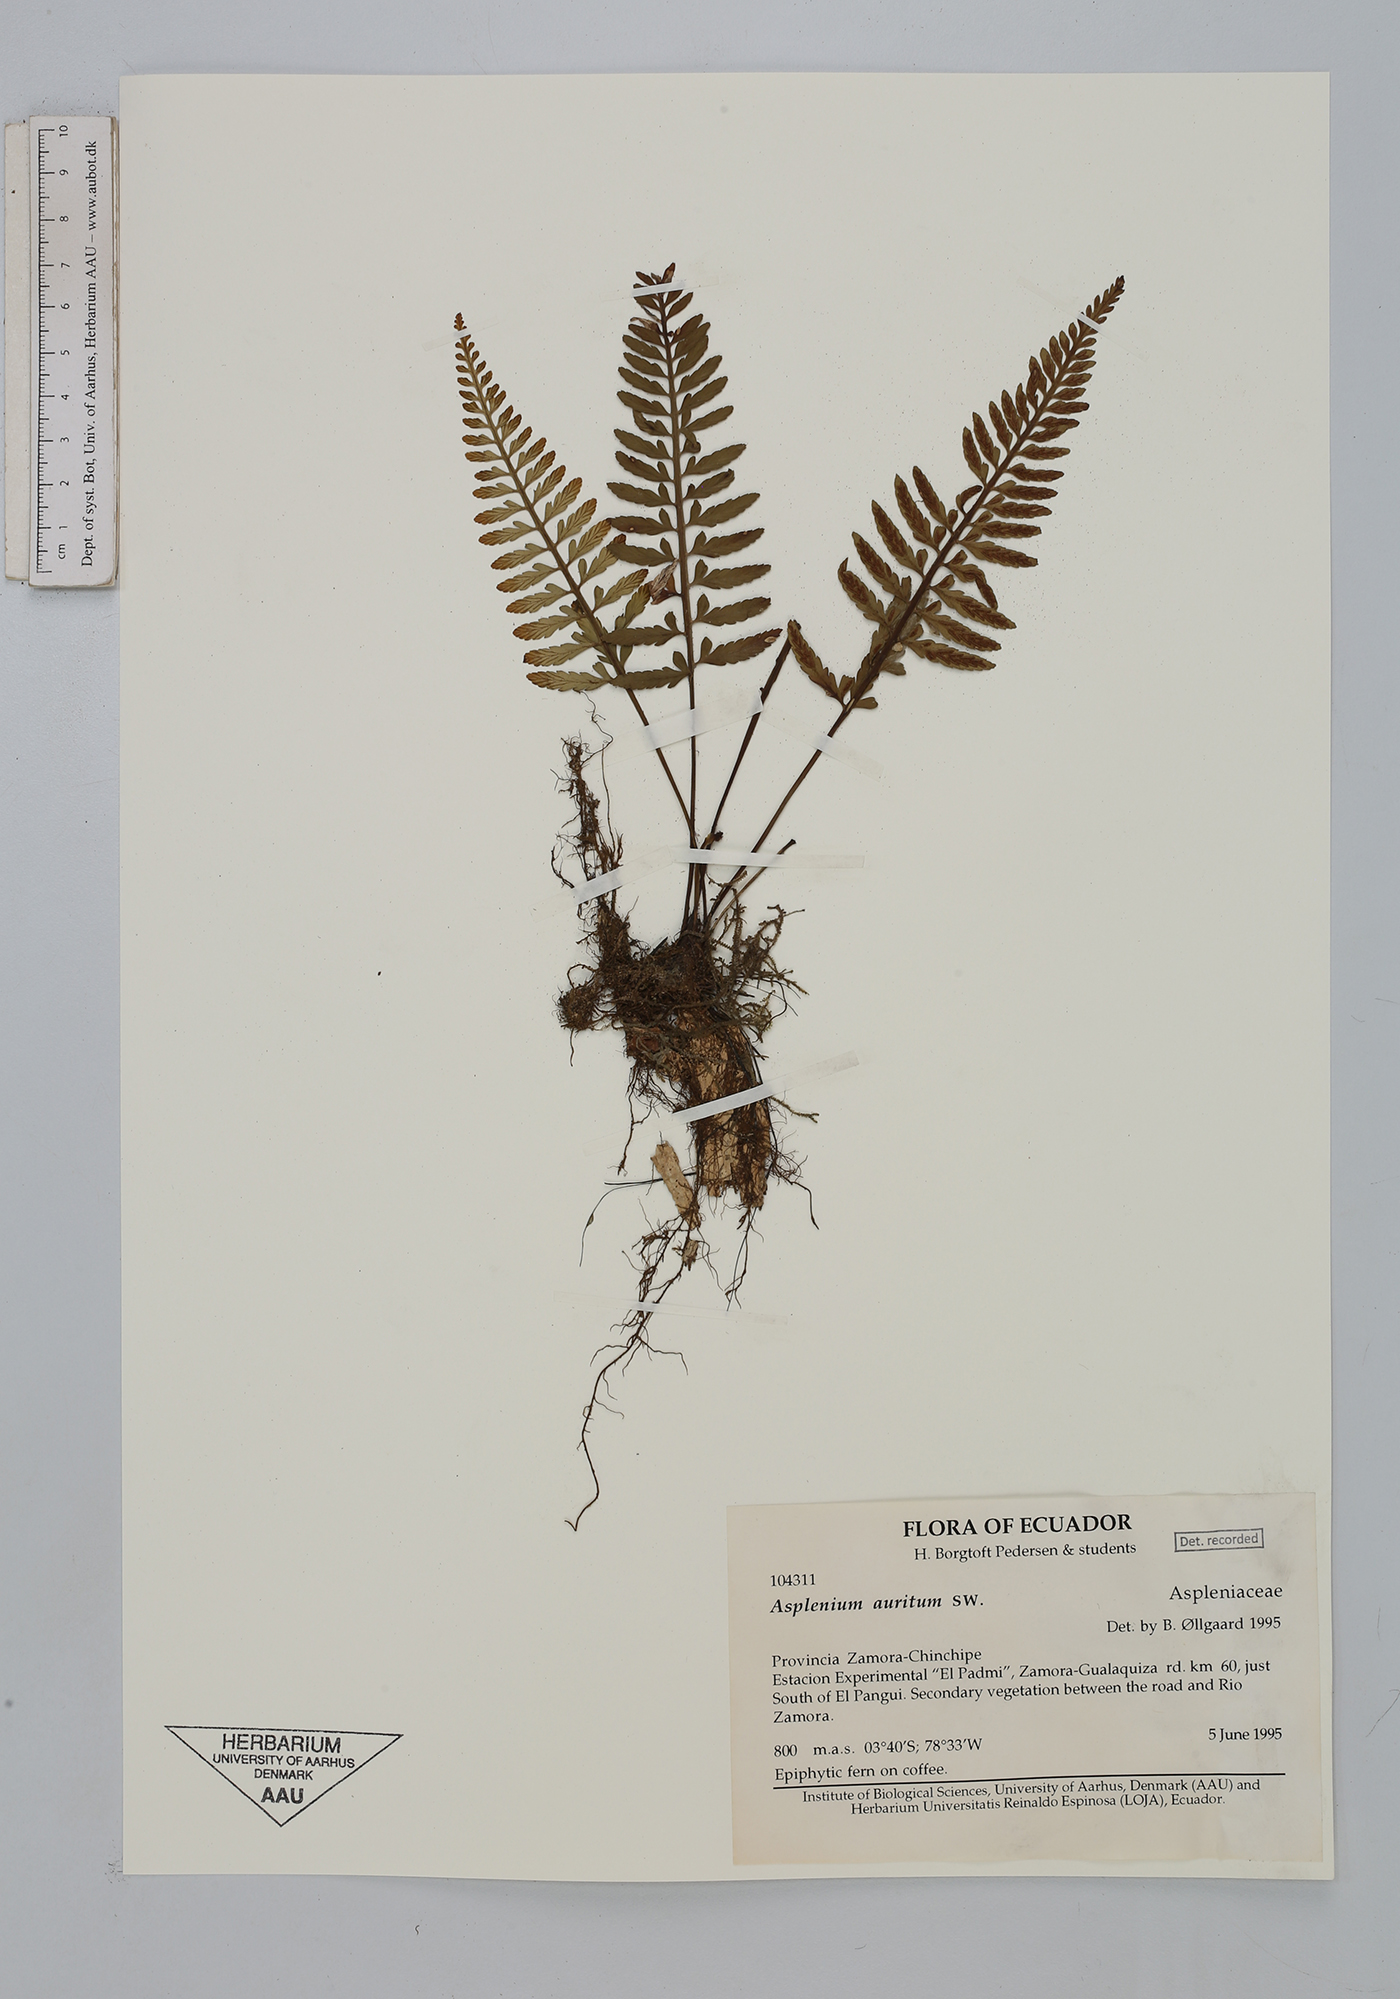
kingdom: Plantae
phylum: Tracheophyta
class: Polypodiopsida
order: Polypodiales
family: Aspleniaceae
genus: Asplenium
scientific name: Asplenium auritum
